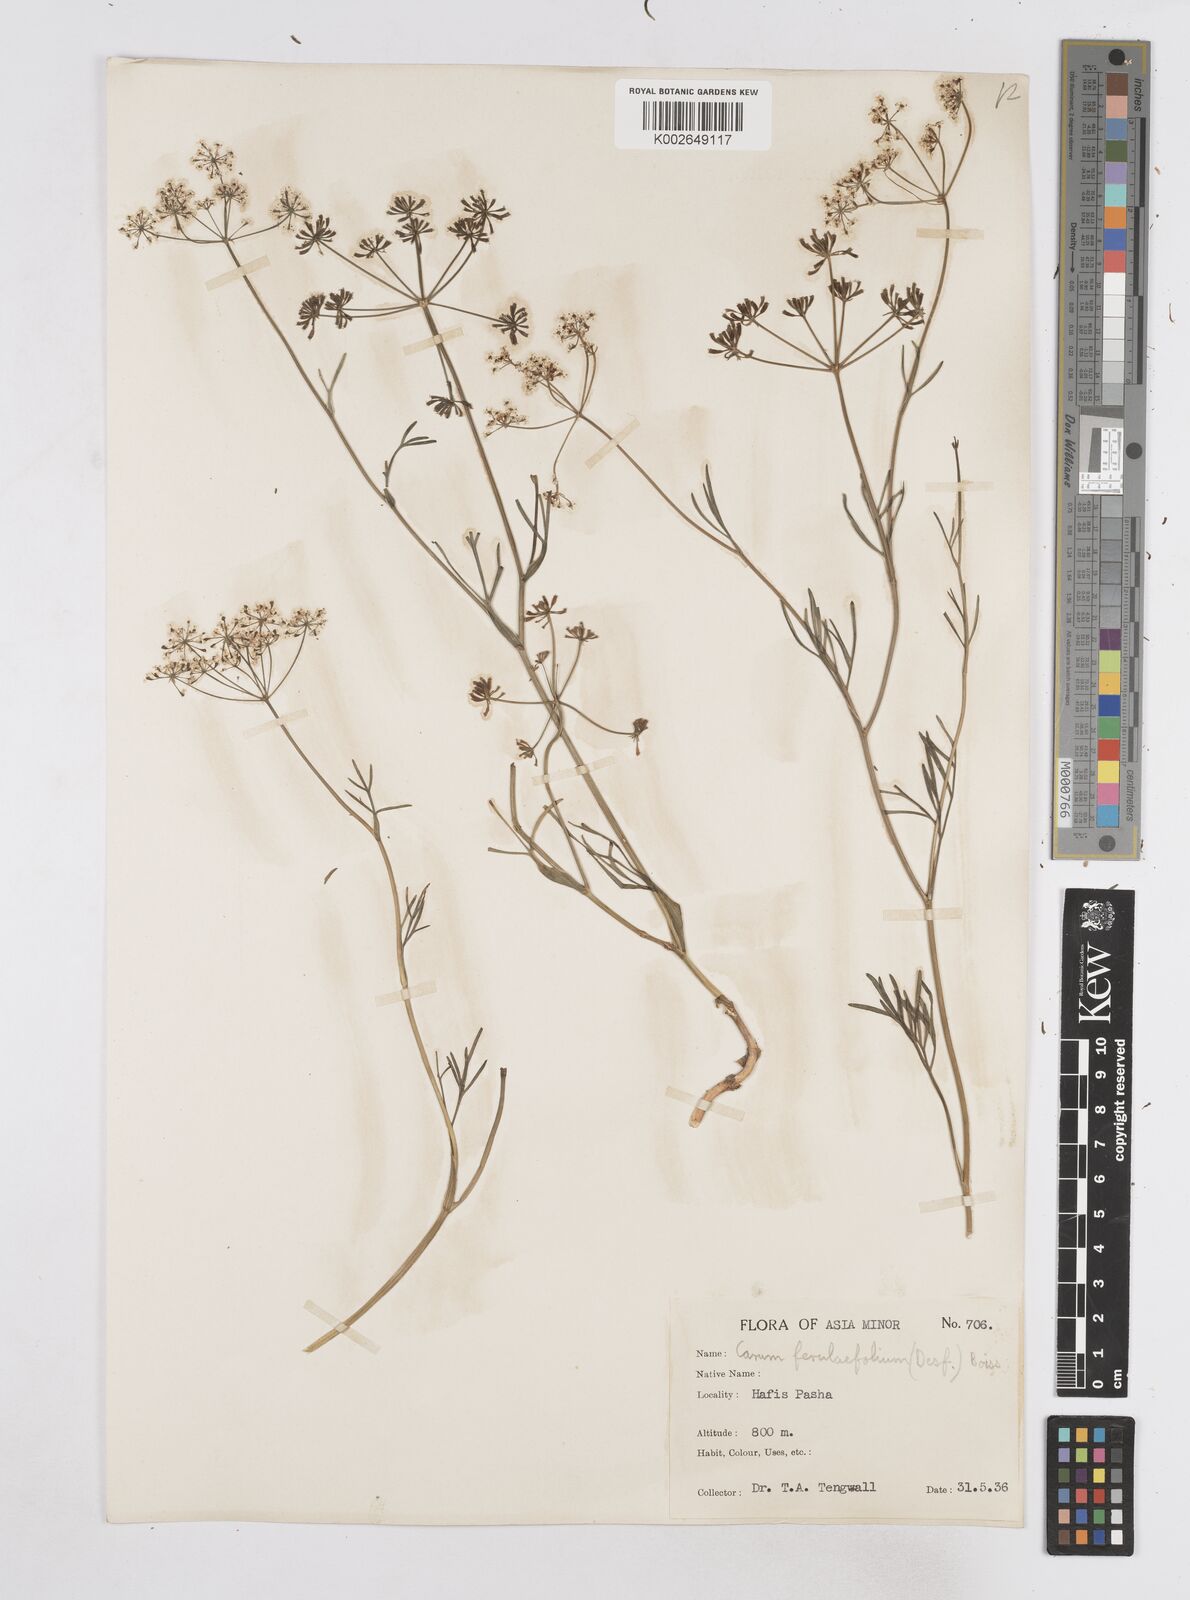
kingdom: Plantae
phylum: Tracheophyta
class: Magnoliopsida
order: Apiales
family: Apiaceae
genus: Bunium
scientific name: Bunium ferulaceum
